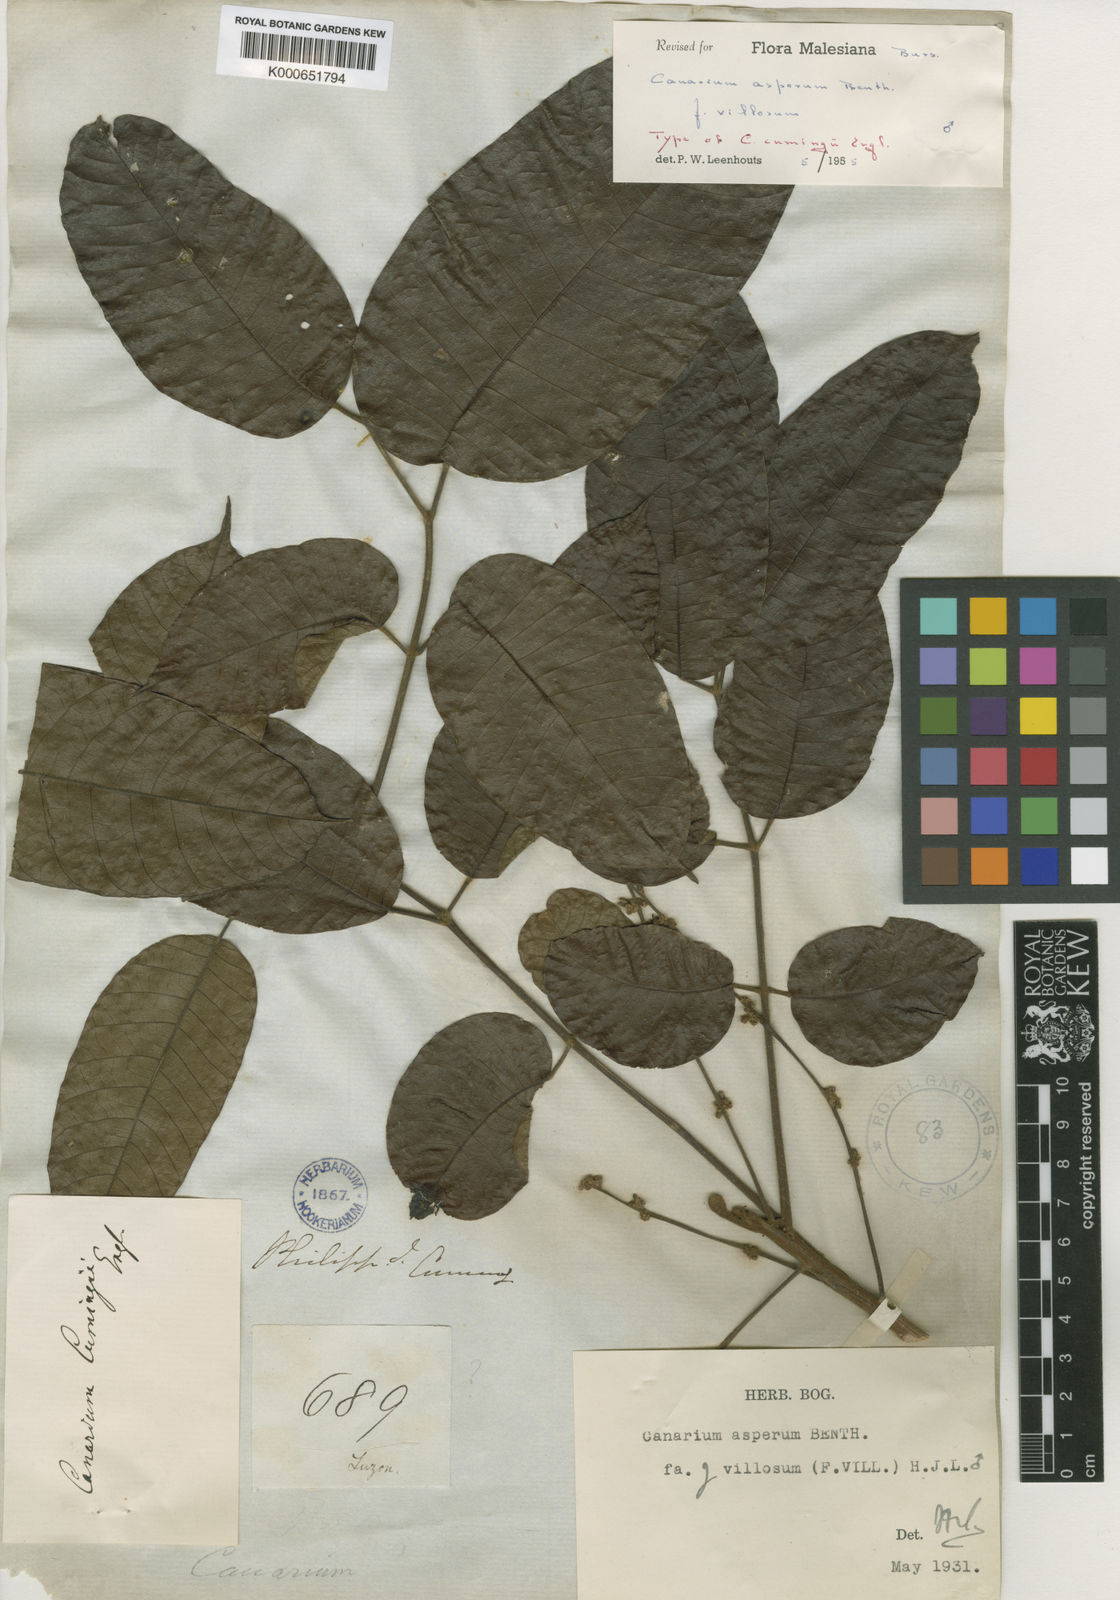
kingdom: Plantae
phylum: Tracheophyta
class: Magnoliopsida
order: Sapindales
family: Burseraceae
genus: Canarium
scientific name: Canarium asperum
